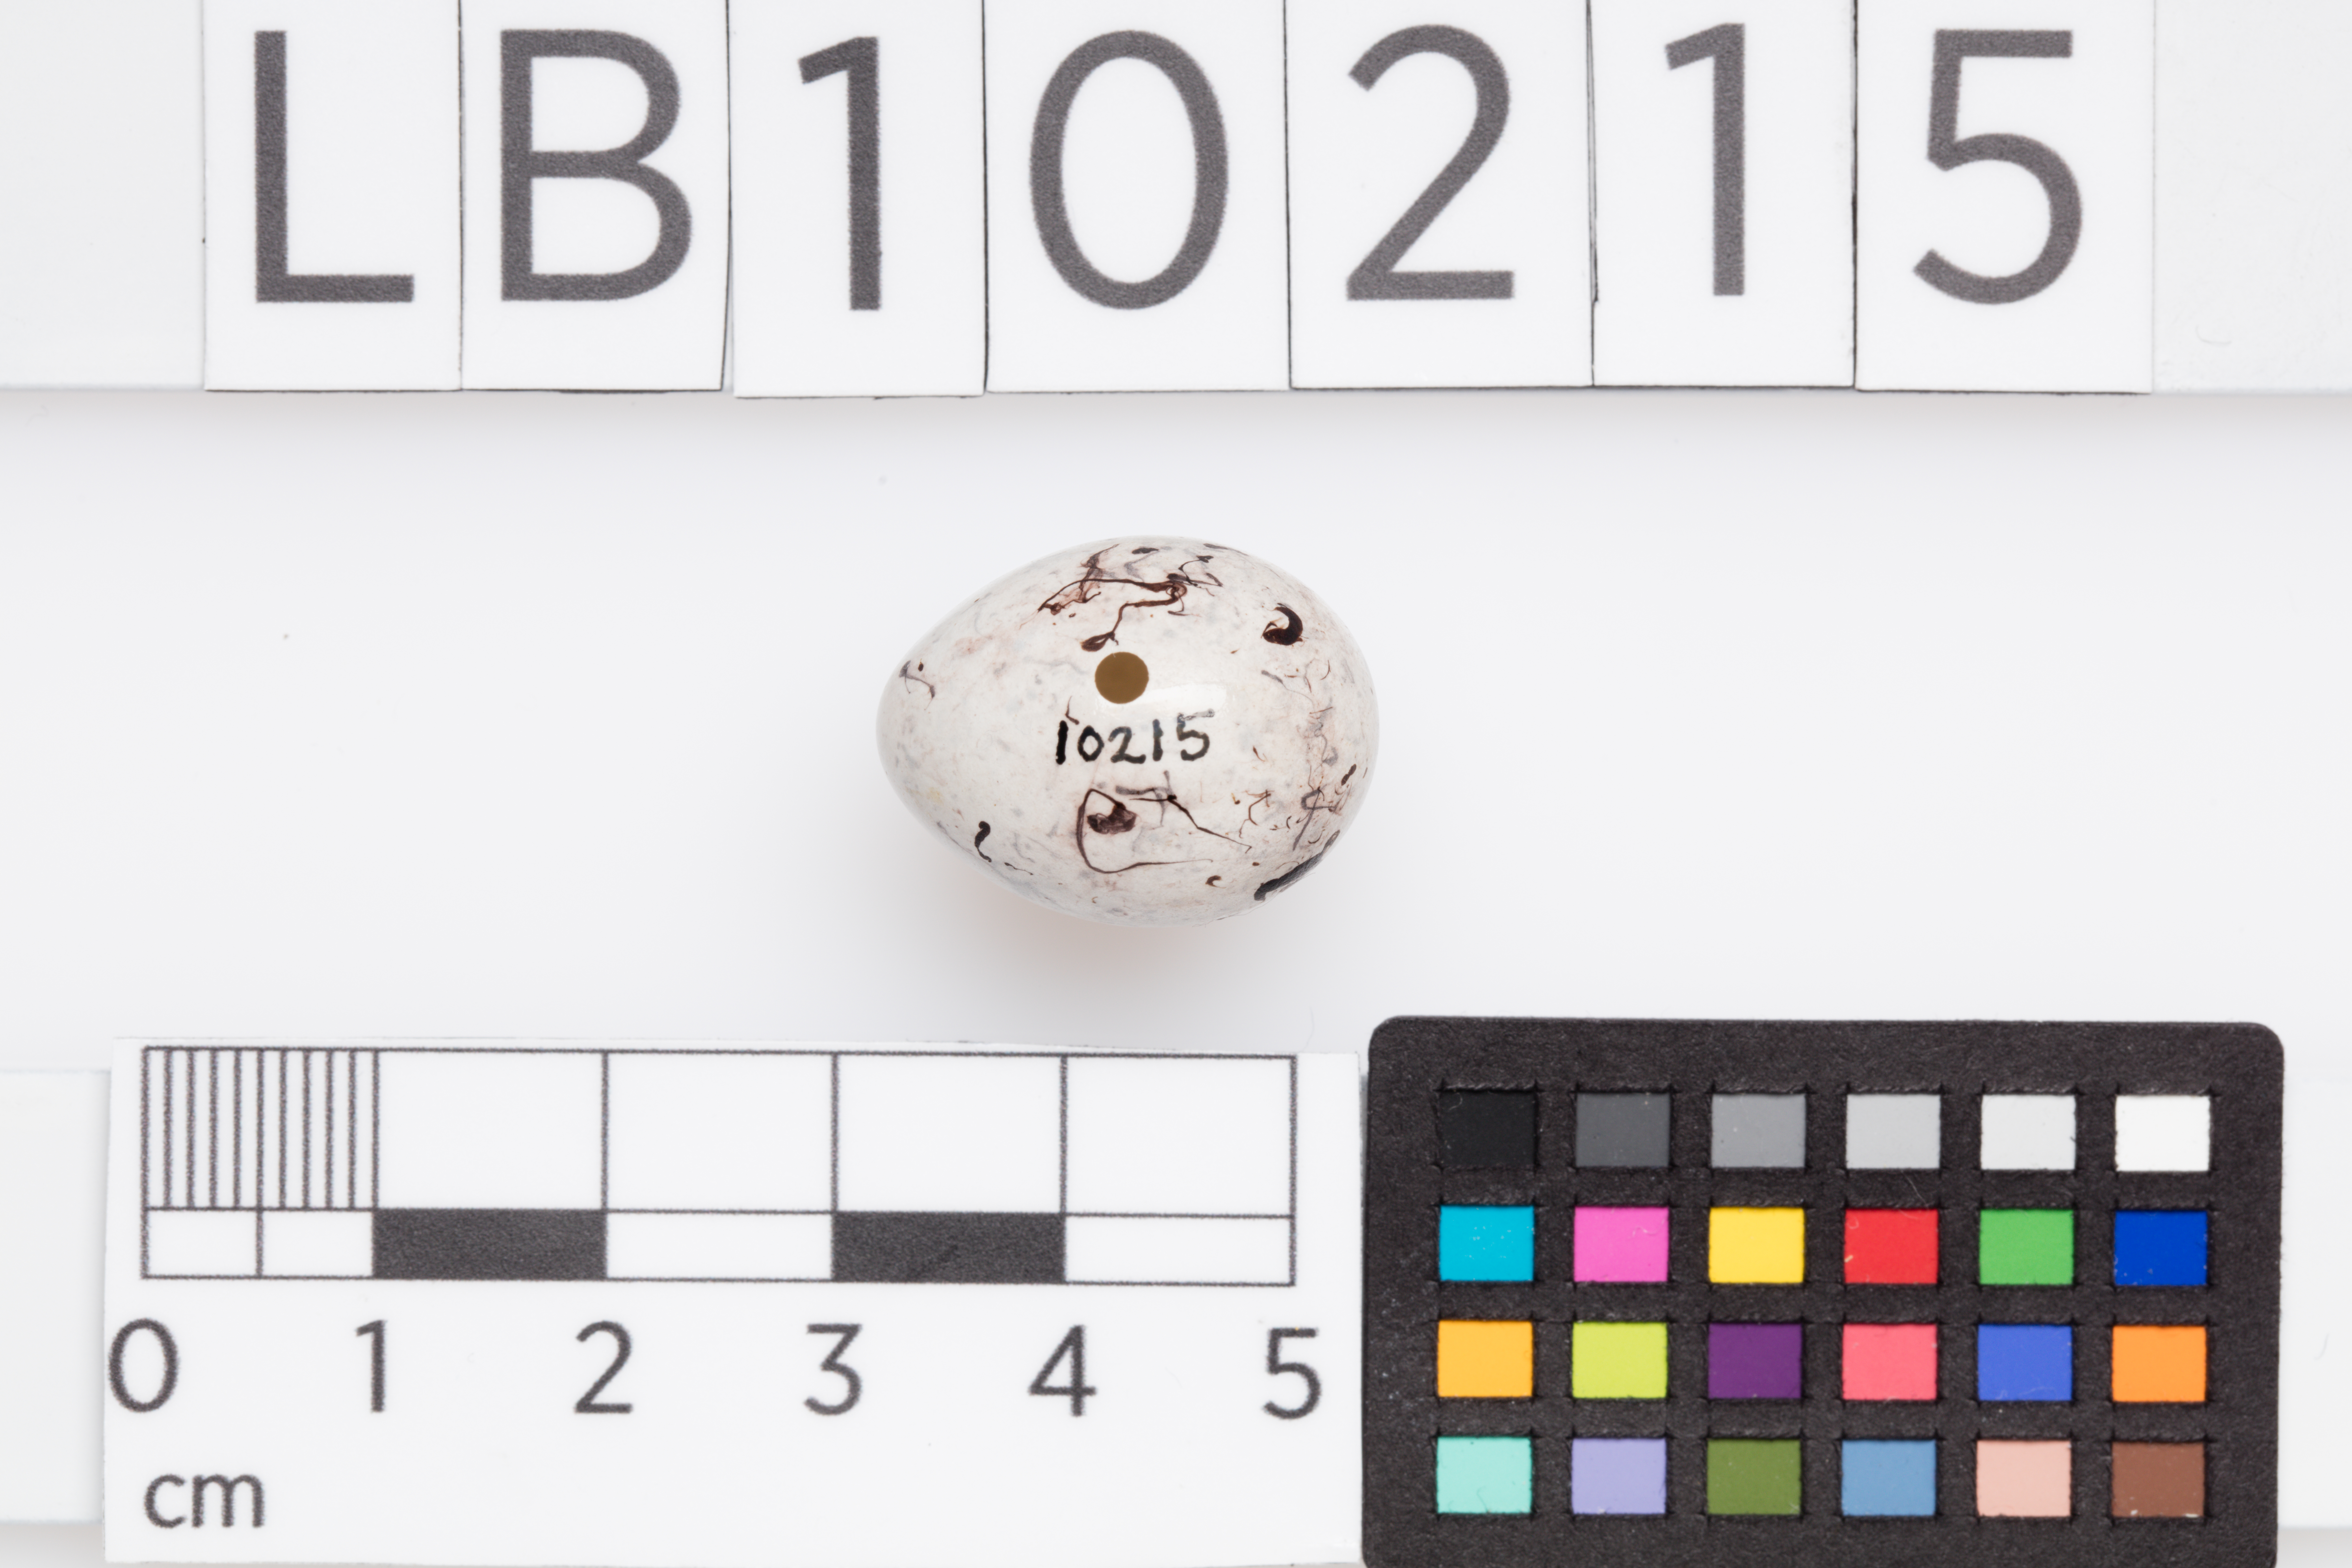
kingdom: Animalia
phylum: Chordata
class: Aves
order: Passeriformes
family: Emberizidae
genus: Emberiza
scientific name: Emberiza cirlus
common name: Cirl bunting
